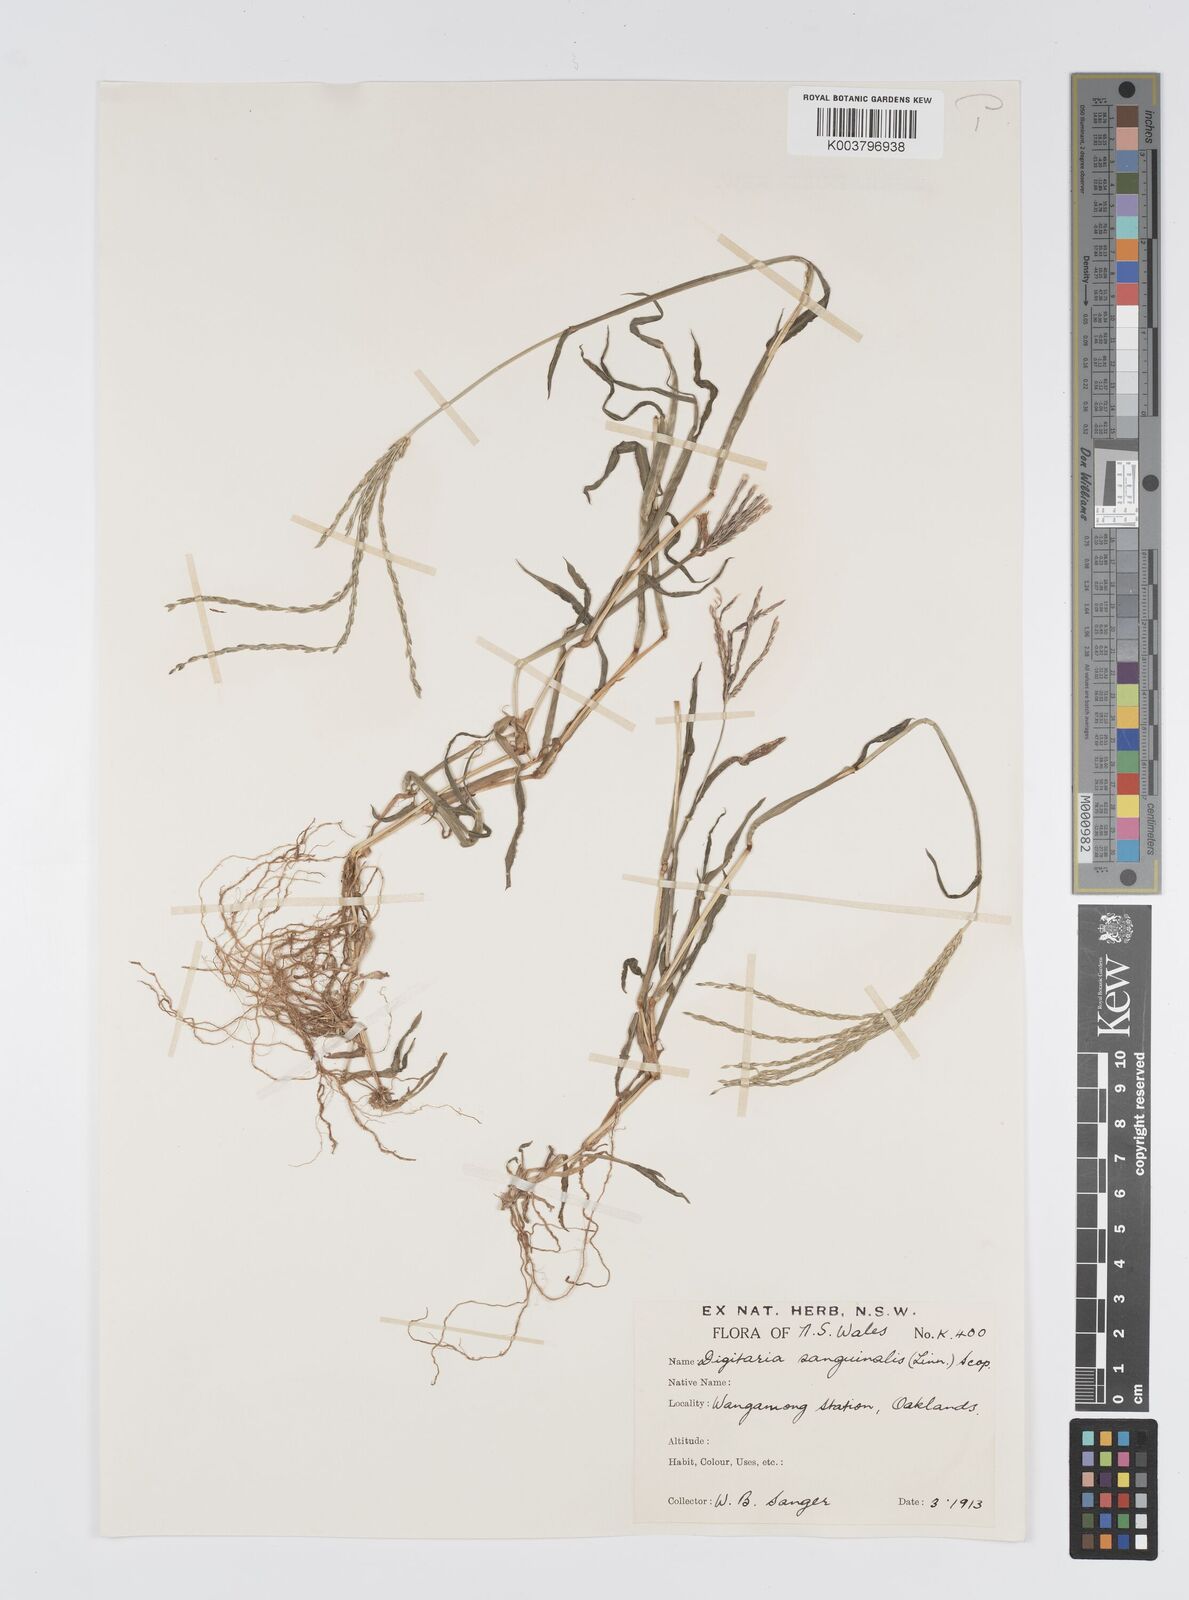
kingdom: Plantae
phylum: Tracheophyta
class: Liliopsida
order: Poales
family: Poaceae
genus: Digitaria
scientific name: Digitaria sanguinalis
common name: Hairy crabgrass
